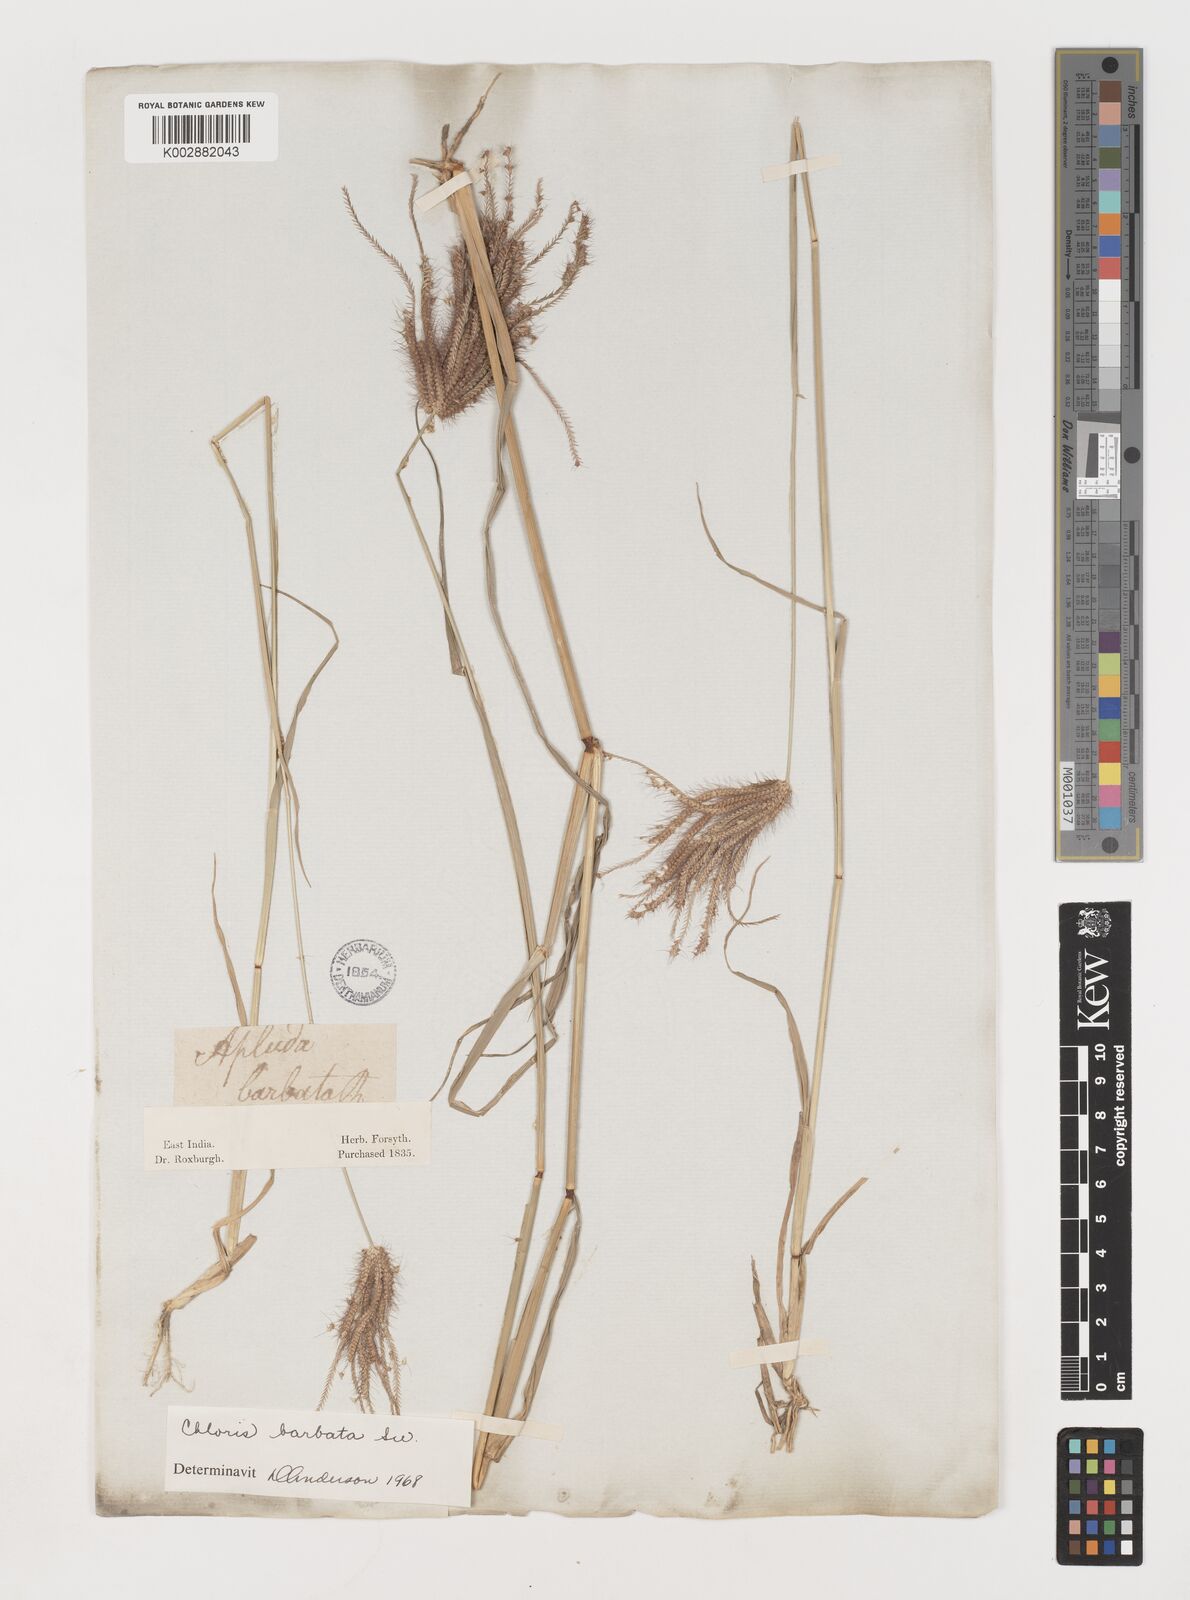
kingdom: Plantae
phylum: Tracheophyta
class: Liliopsida
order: Poales
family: Poaceae
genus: Chloris
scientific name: Chloris barbata
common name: Swollen fingergrass
